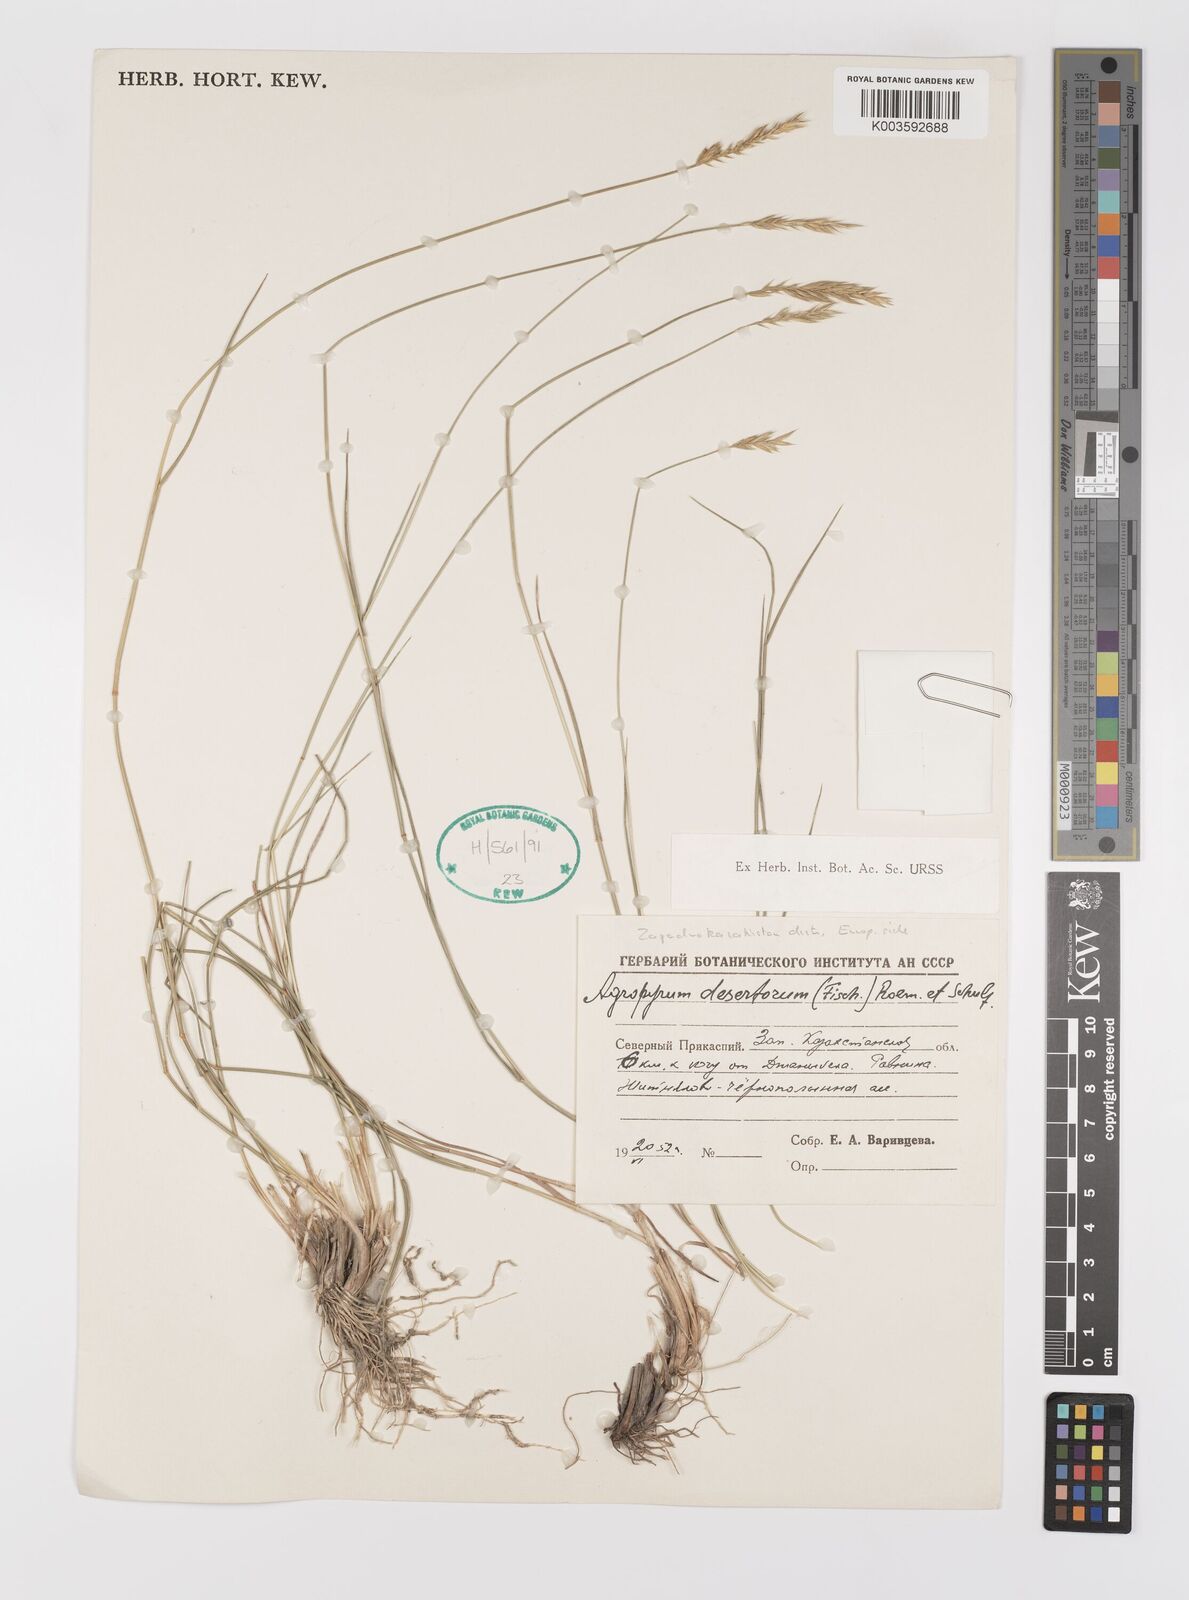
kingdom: Plantae
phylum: Tracheophyta
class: Liliopsida
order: Poales
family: Poaceae
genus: Agropyron
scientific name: Agropyron desertorum
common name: Desert wheatgrass
